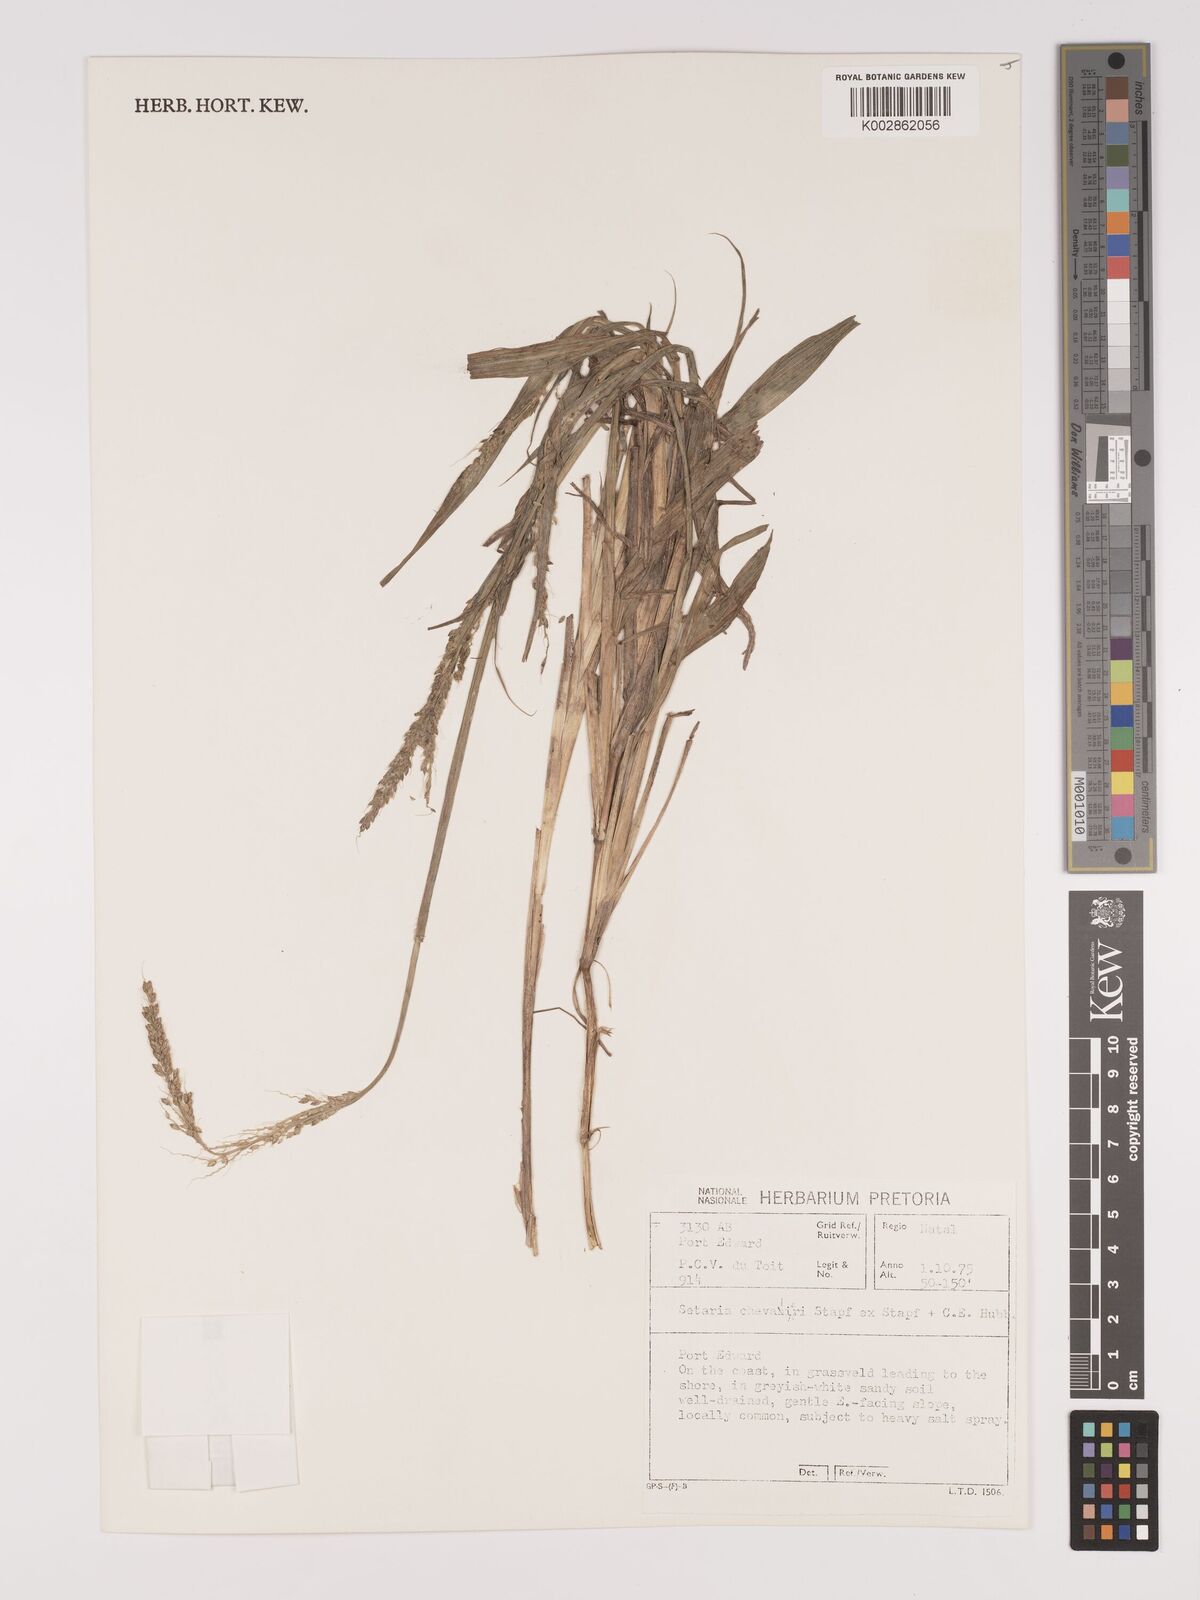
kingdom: Plantae
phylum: Tracheophyta
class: Liliopsida
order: Poales
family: Poaceae
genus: Setaria
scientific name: Setaria megaphylla
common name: Bigleaf bristlegrass
